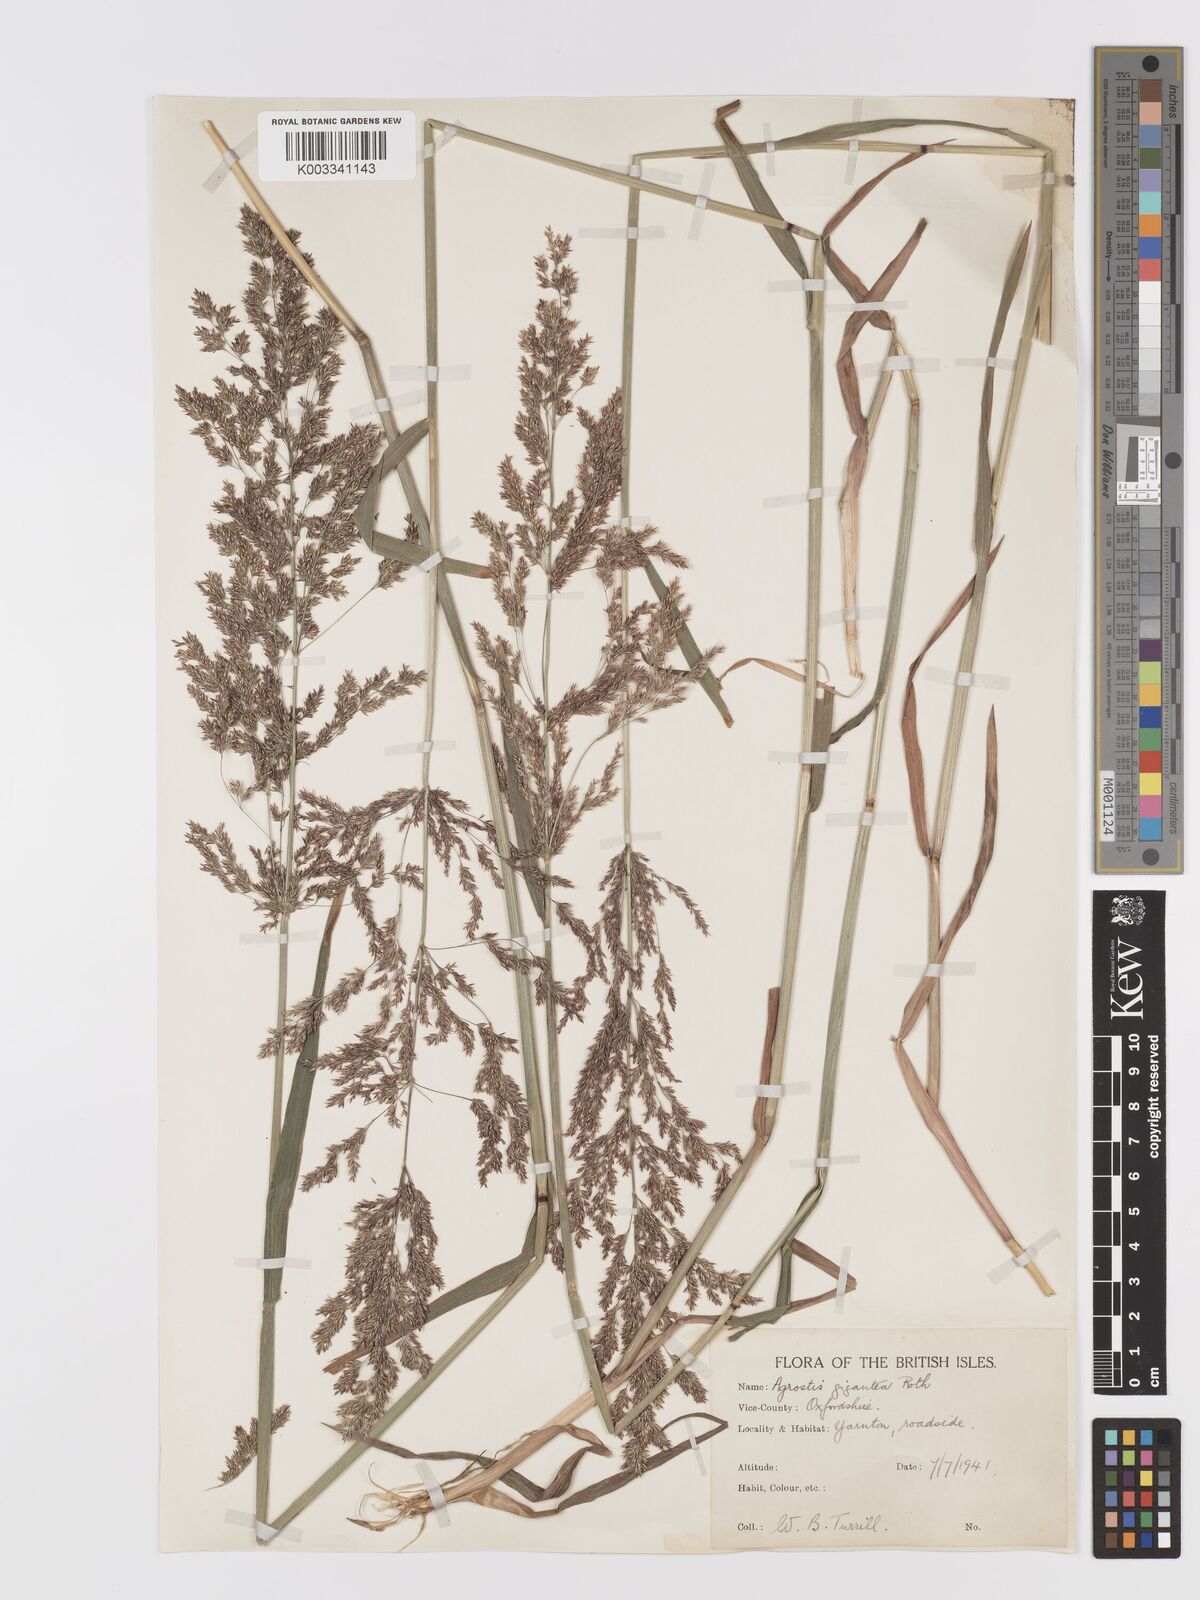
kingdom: Plantae
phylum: Tracheophyta
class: Liliopsida
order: Poales
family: Poaceae
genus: Agrostis
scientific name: Agrostis gigantea
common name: Black bent
